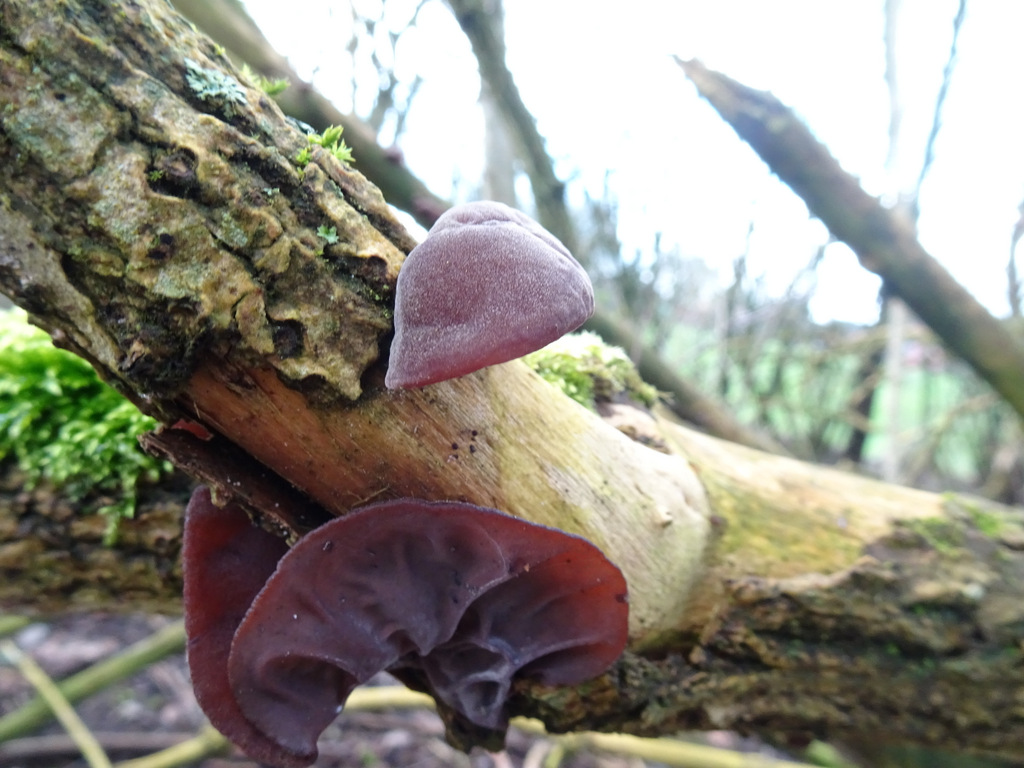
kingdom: Fungi
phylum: Basidiomycota
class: Agaricomycetes
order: Auriculariales
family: Auriculariaceae
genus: Auricularia
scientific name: Auricularia auricula-judae
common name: almindelig judasøre
